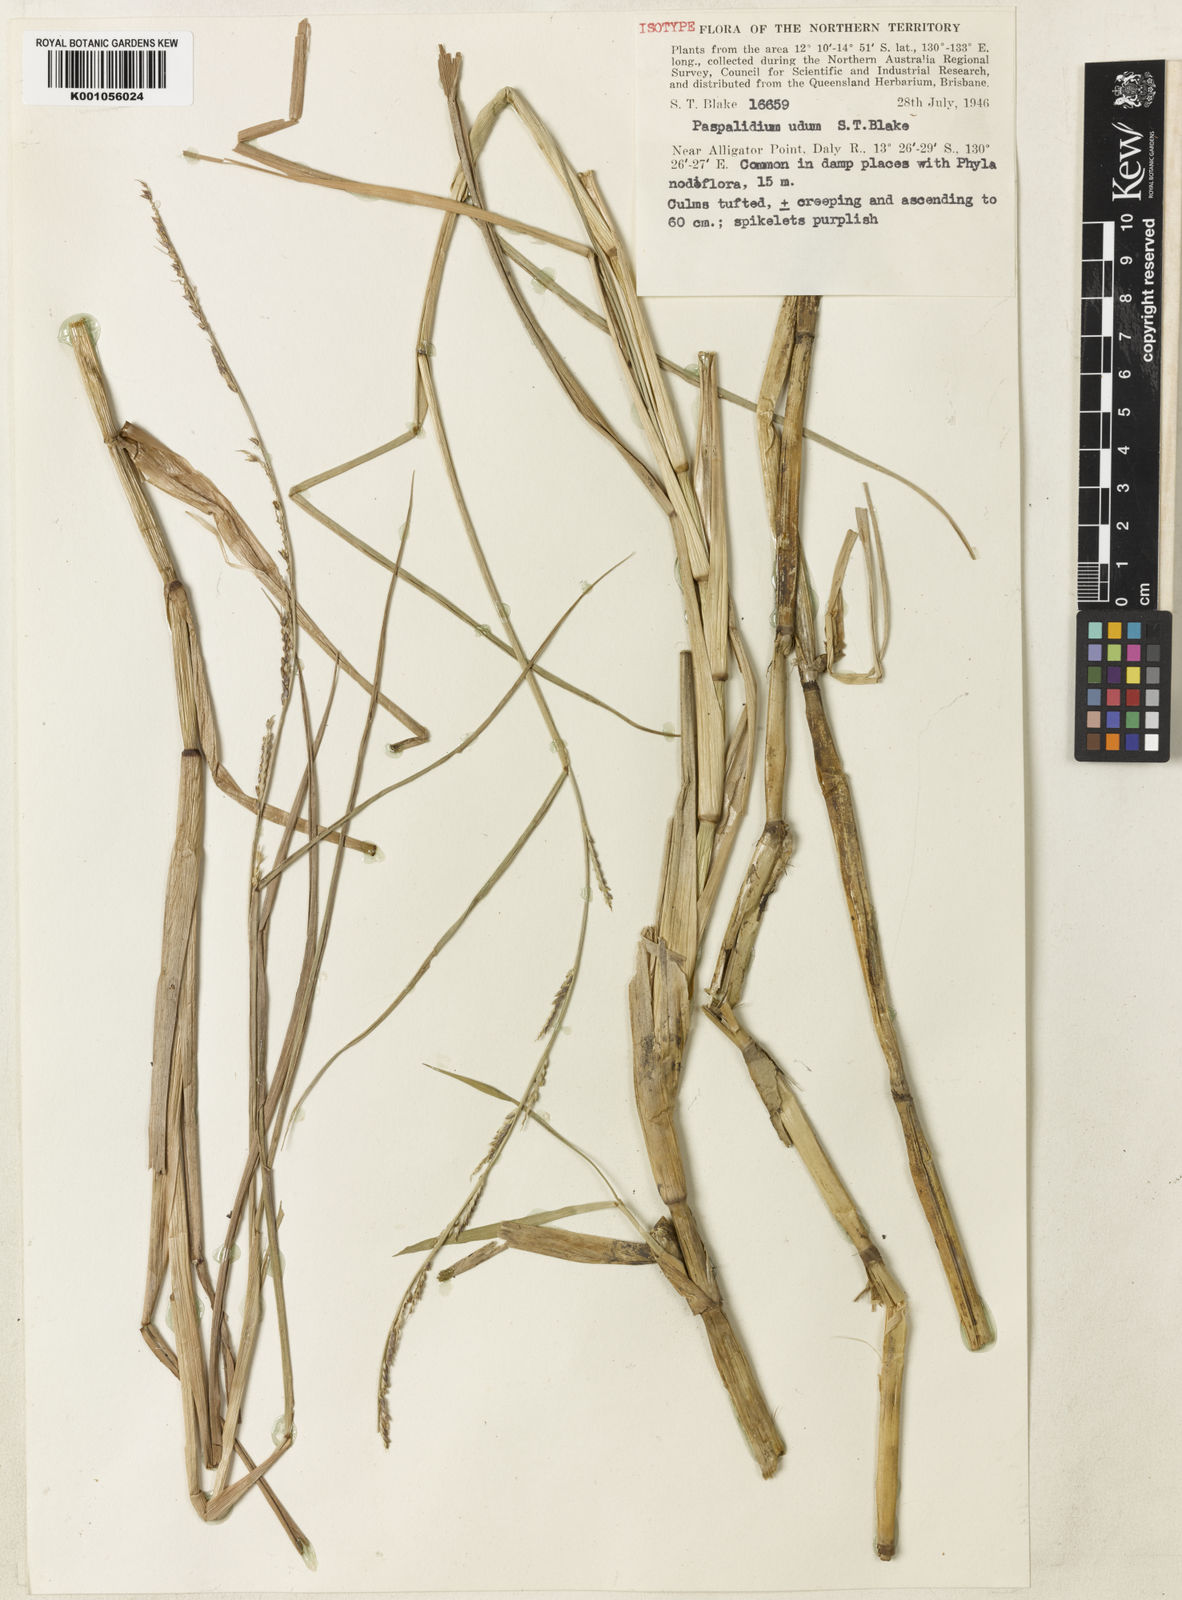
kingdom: Plantae
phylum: Tracheophyta
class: Liliopsida
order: Poales
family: Poaceae
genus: Setaria
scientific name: Setaria uda
